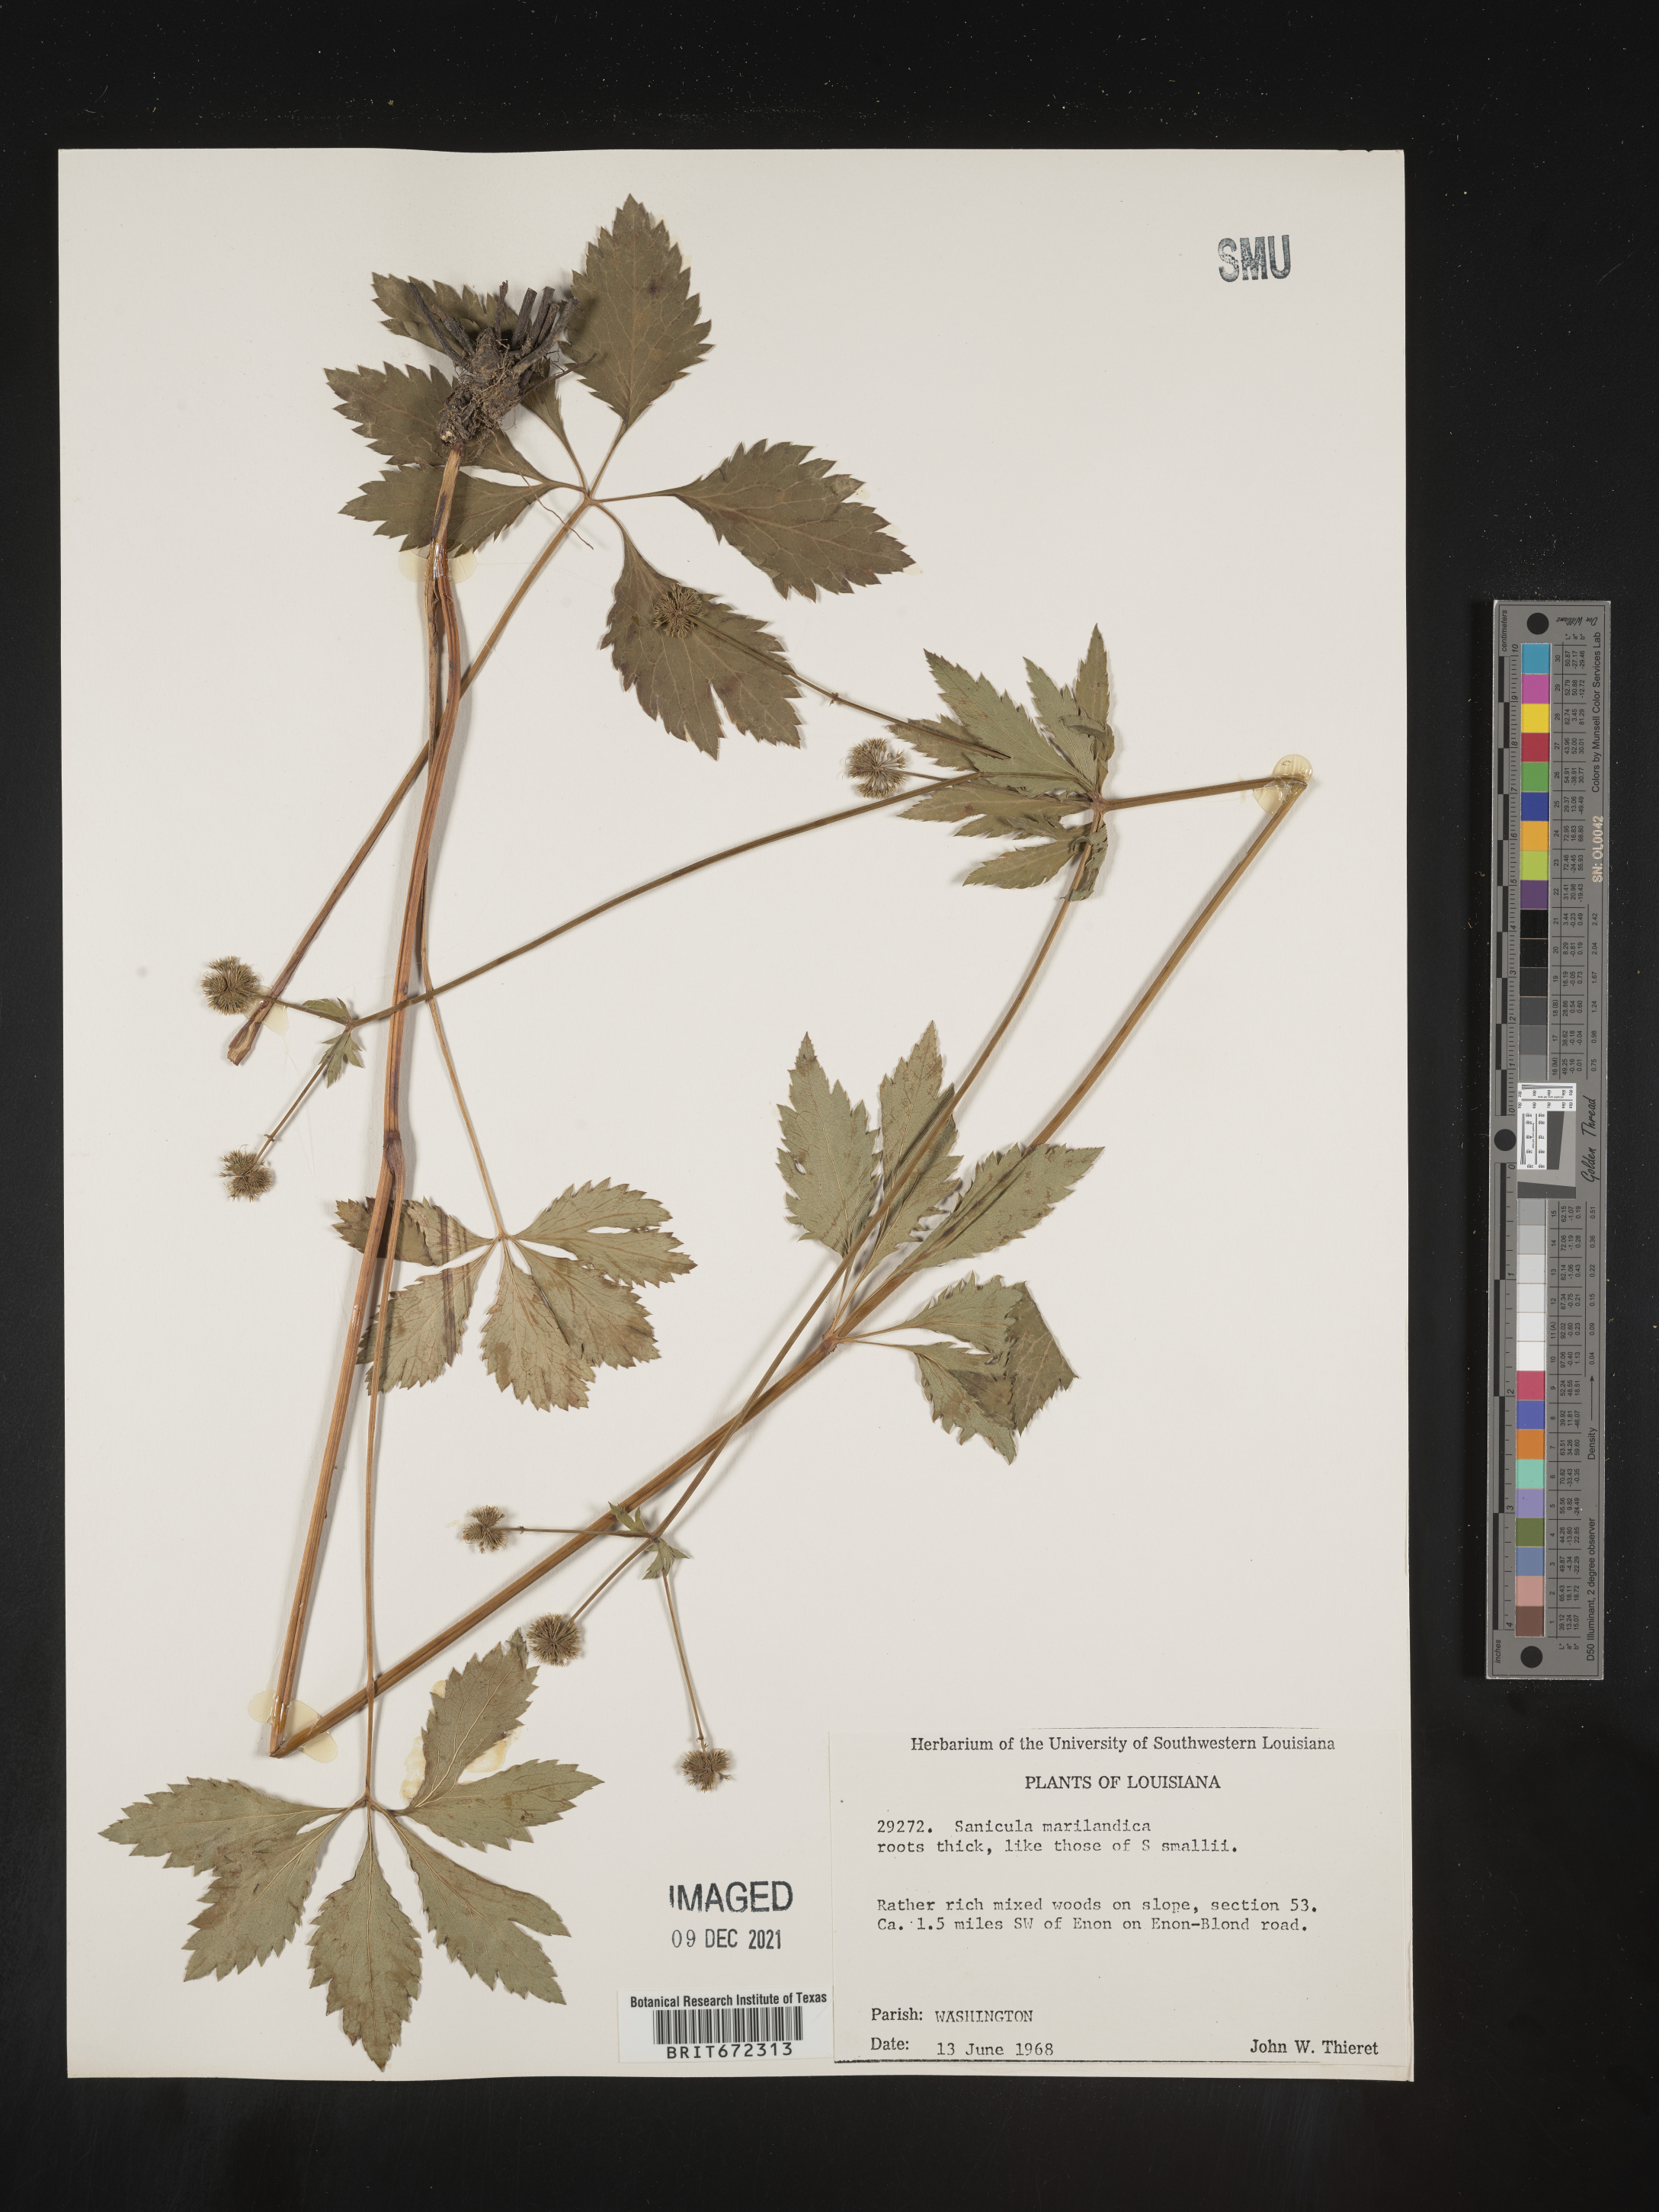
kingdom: Plantae
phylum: Tracheophyta
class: Magnoliopsida
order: Apiales
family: Apiaceae
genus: Sanicula
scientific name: Sanicula marilandica
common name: Black snakeroot
